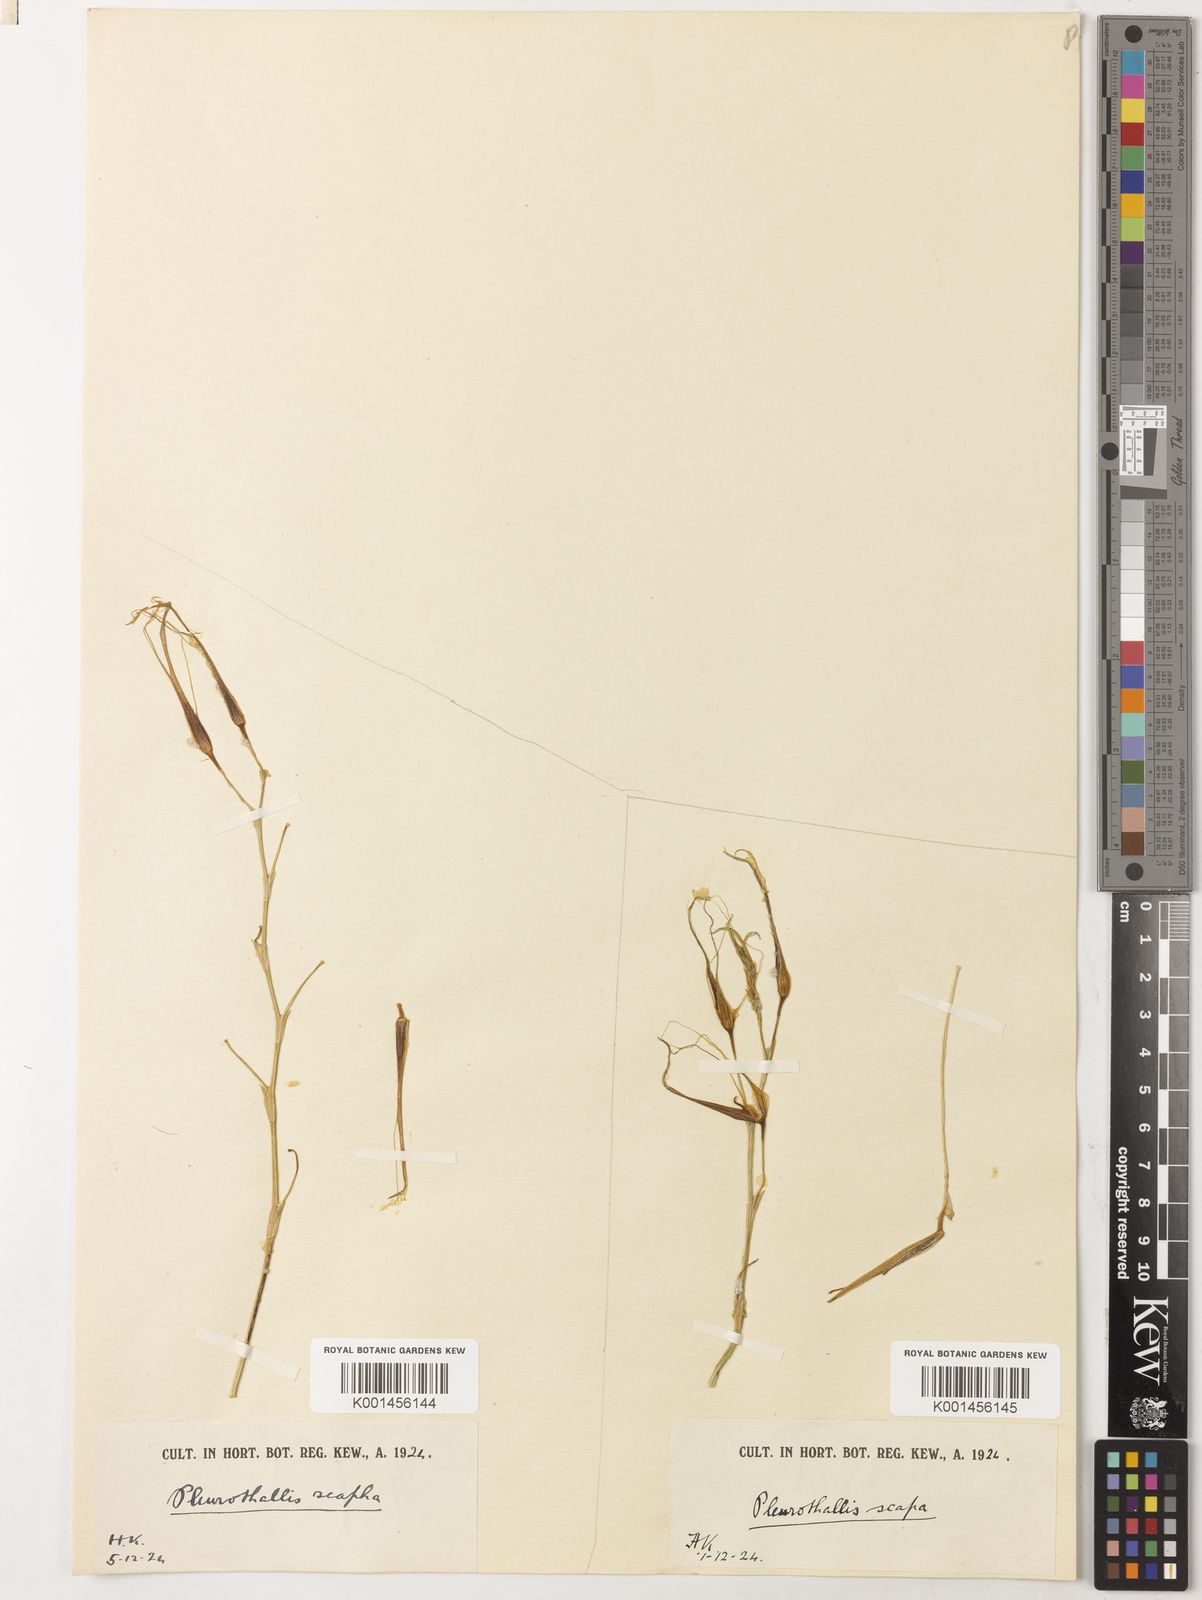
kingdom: Plantae
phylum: Tracheophyta
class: Liliopsida
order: Asparagales
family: Orchidaceae
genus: Pleurothallis
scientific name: Pleurothallis sirene
